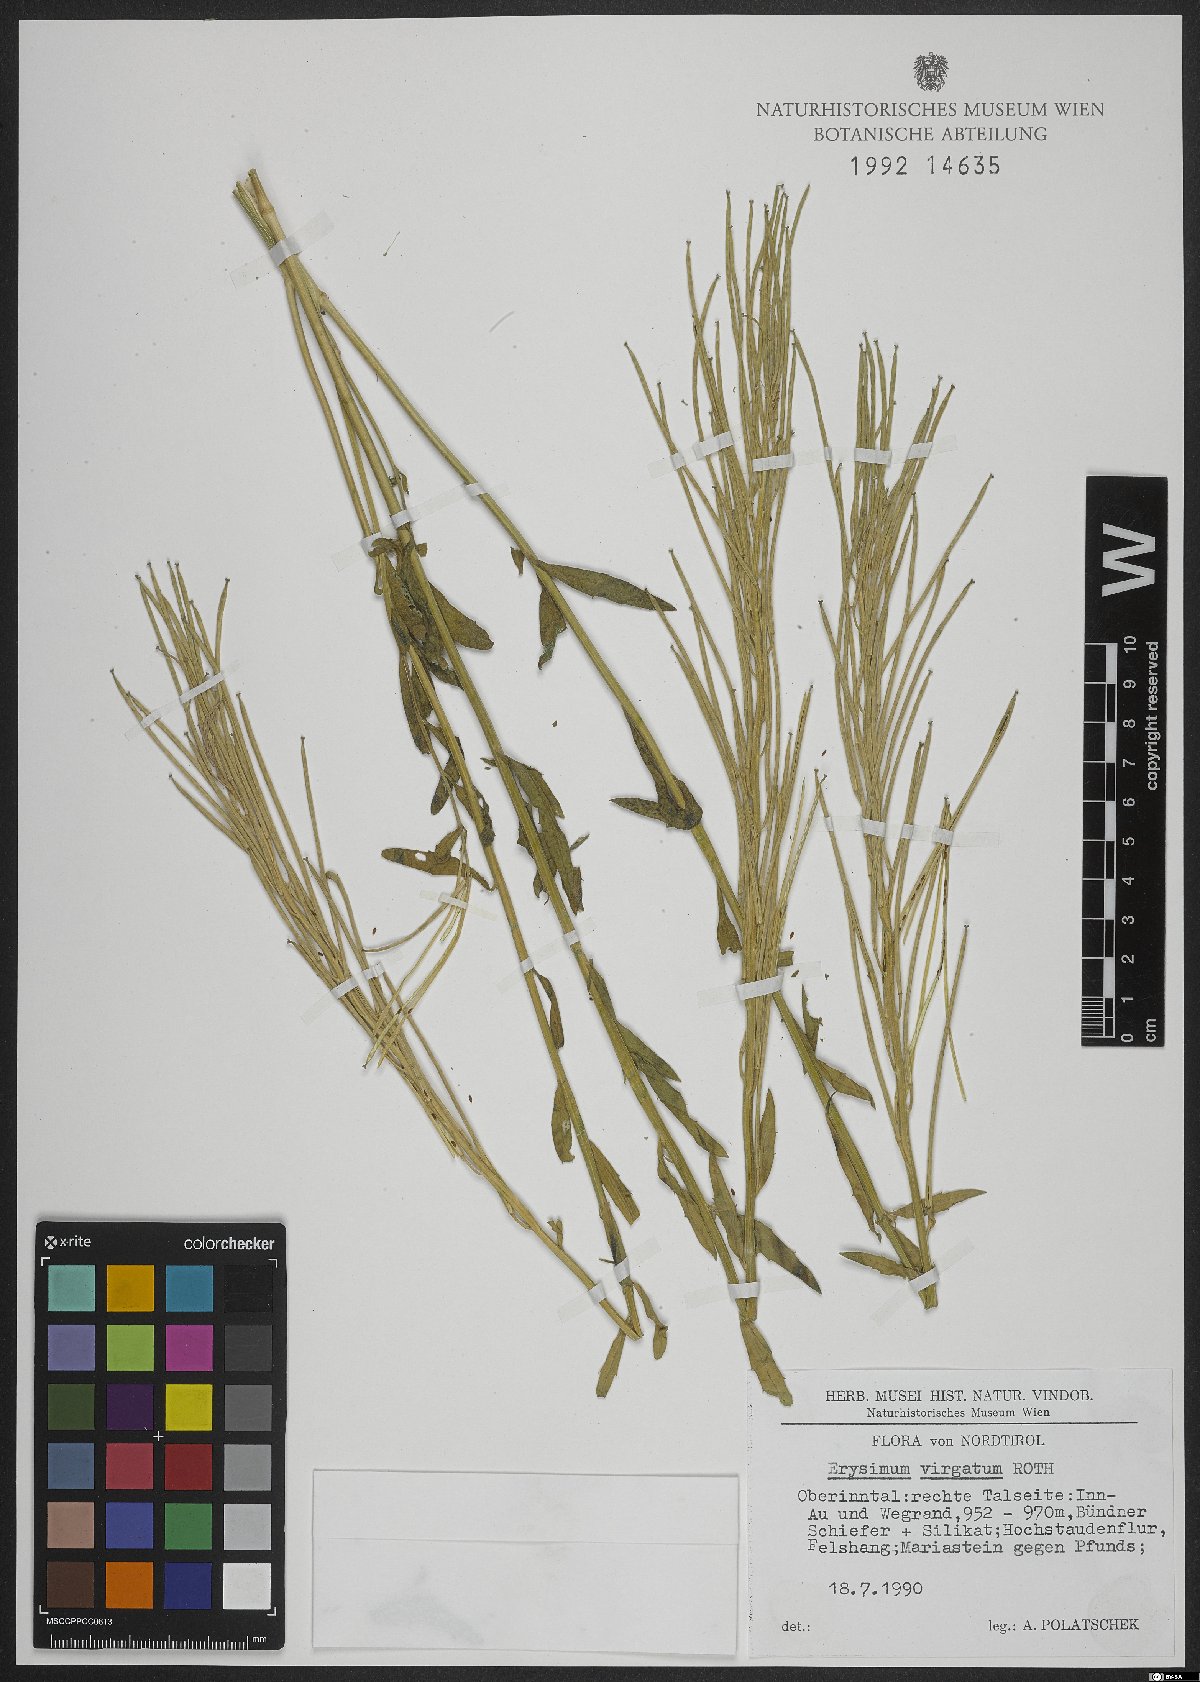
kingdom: Plantae
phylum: Tracheophyta
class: Magnoliopsida
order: Brassicales
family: Brassicaceae
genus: Erysimum
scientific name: Erysimum virgatum
